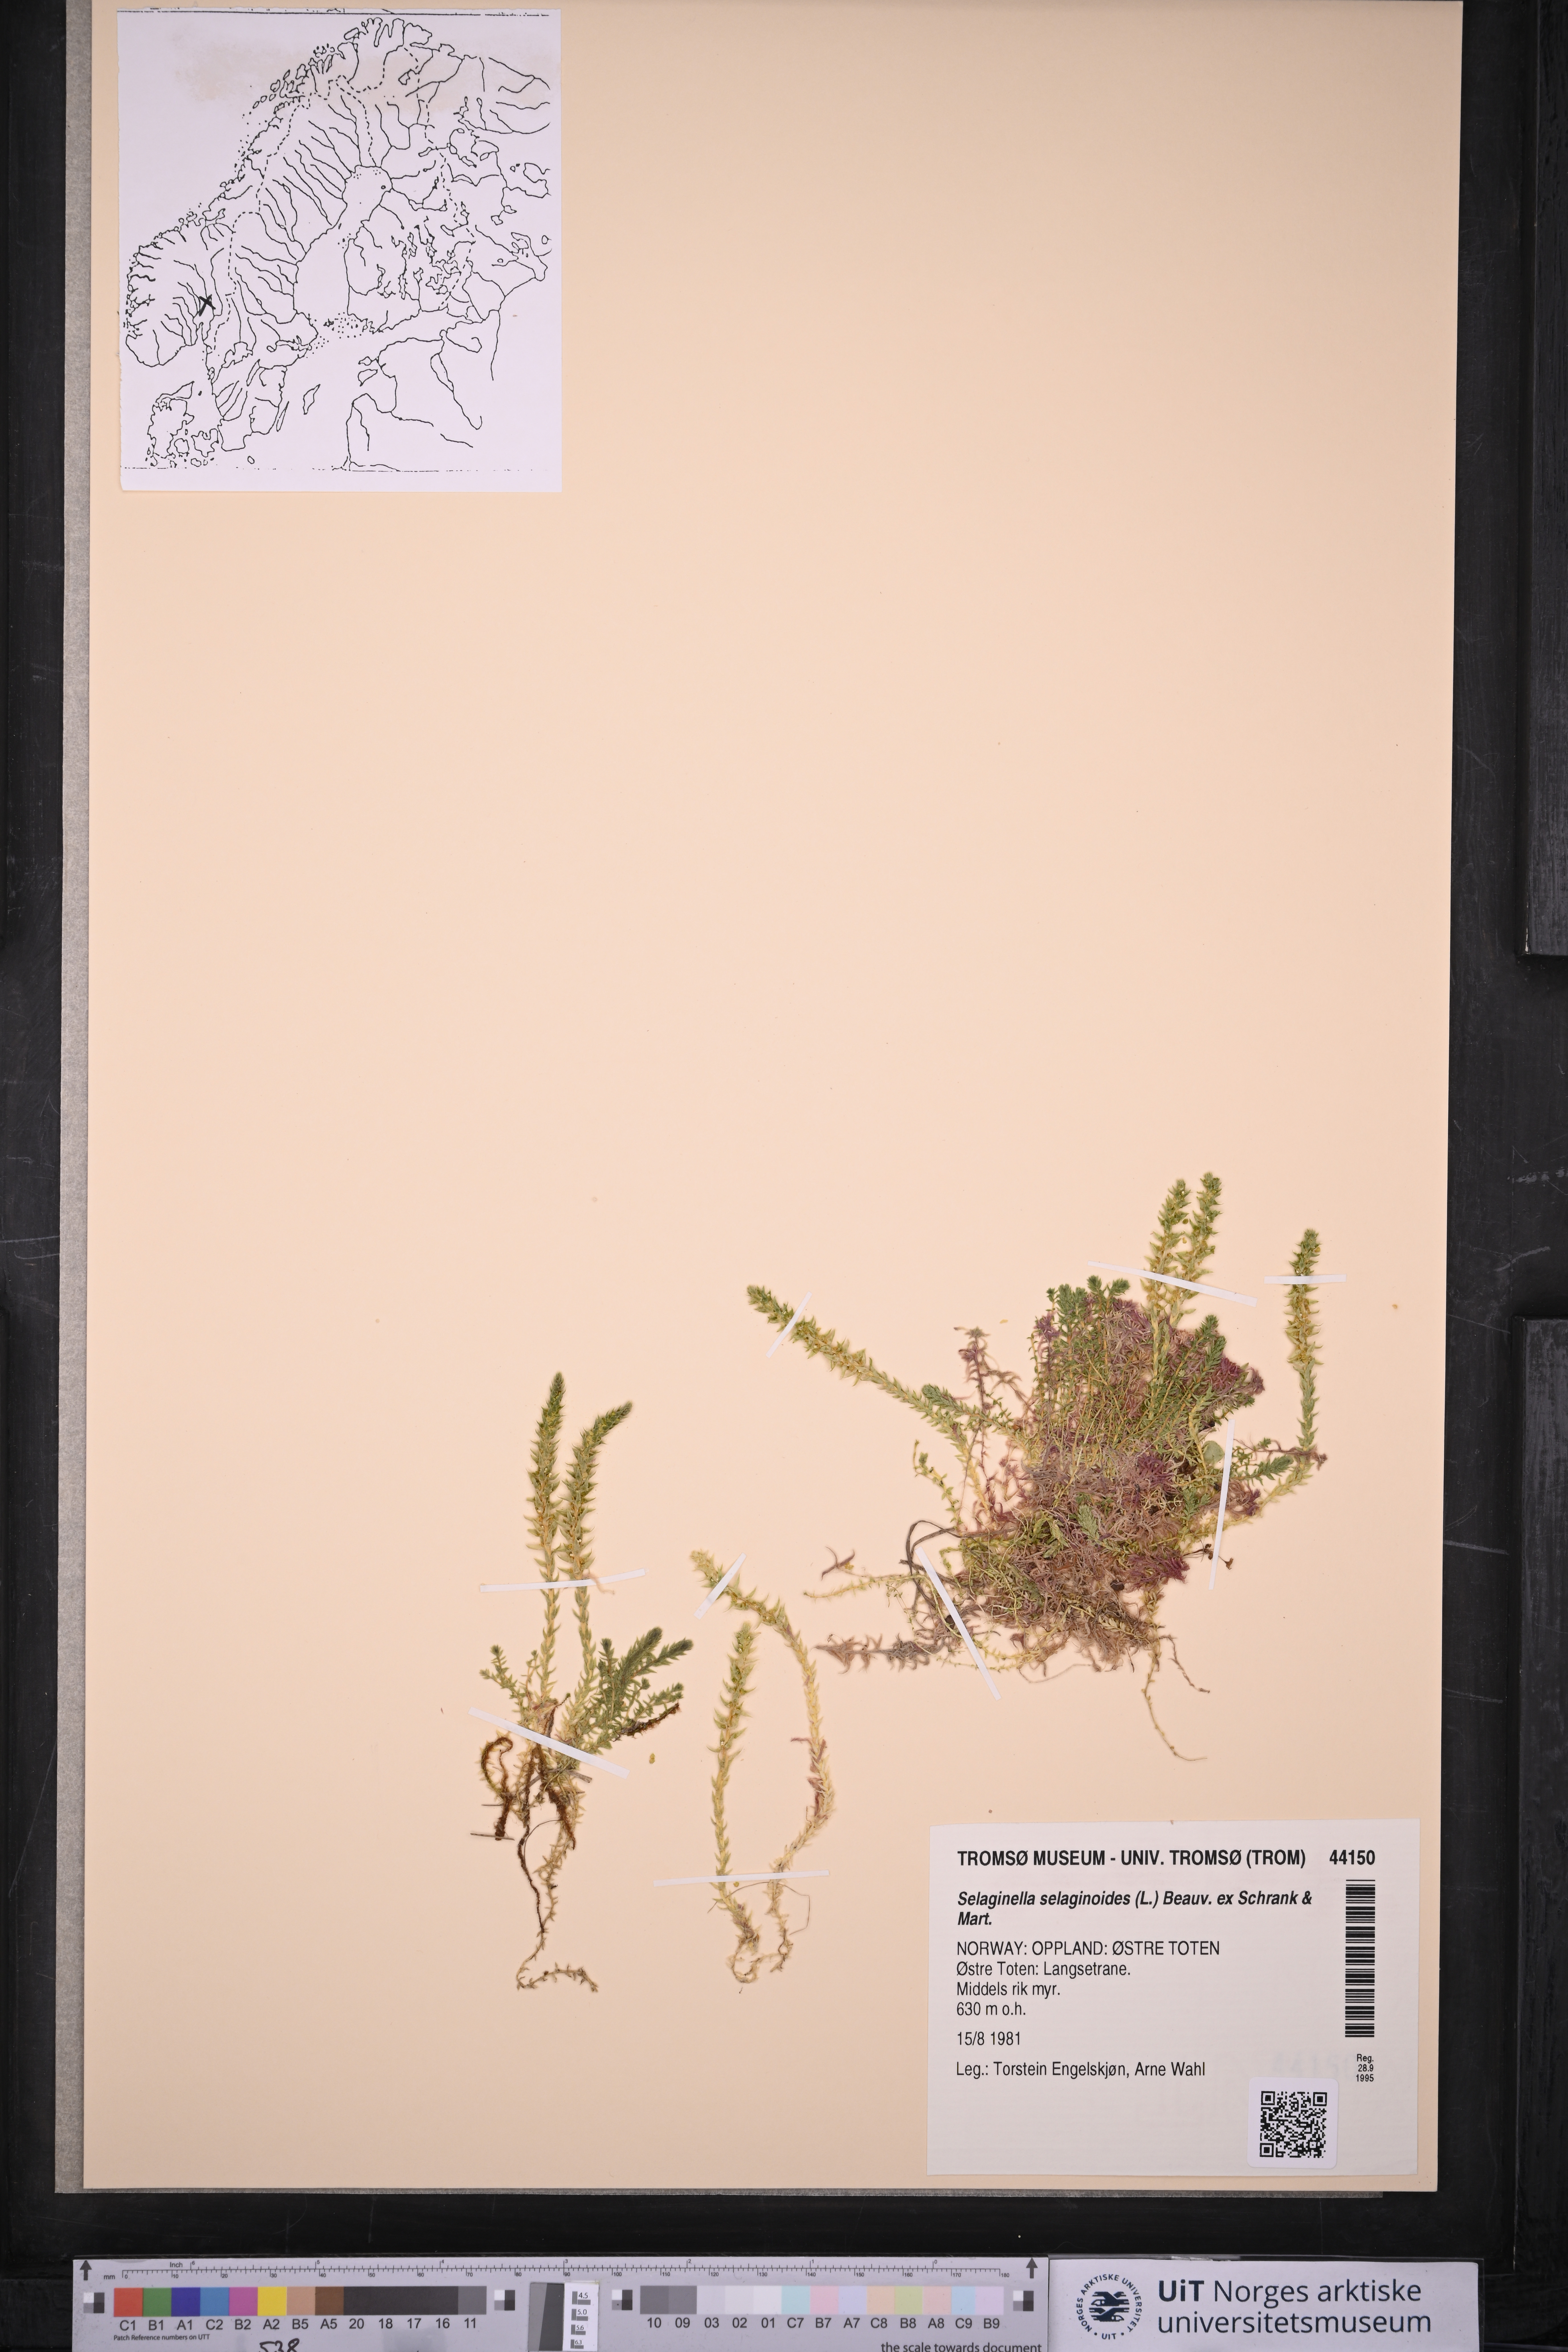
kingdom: Plantae
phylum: Tracheophyta
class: Lycopodiopsida
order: Selaginellales
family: Selaginellaceae
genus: Selaginella
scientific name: Selaginella selaginoides
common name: Prickly mountain-moss
